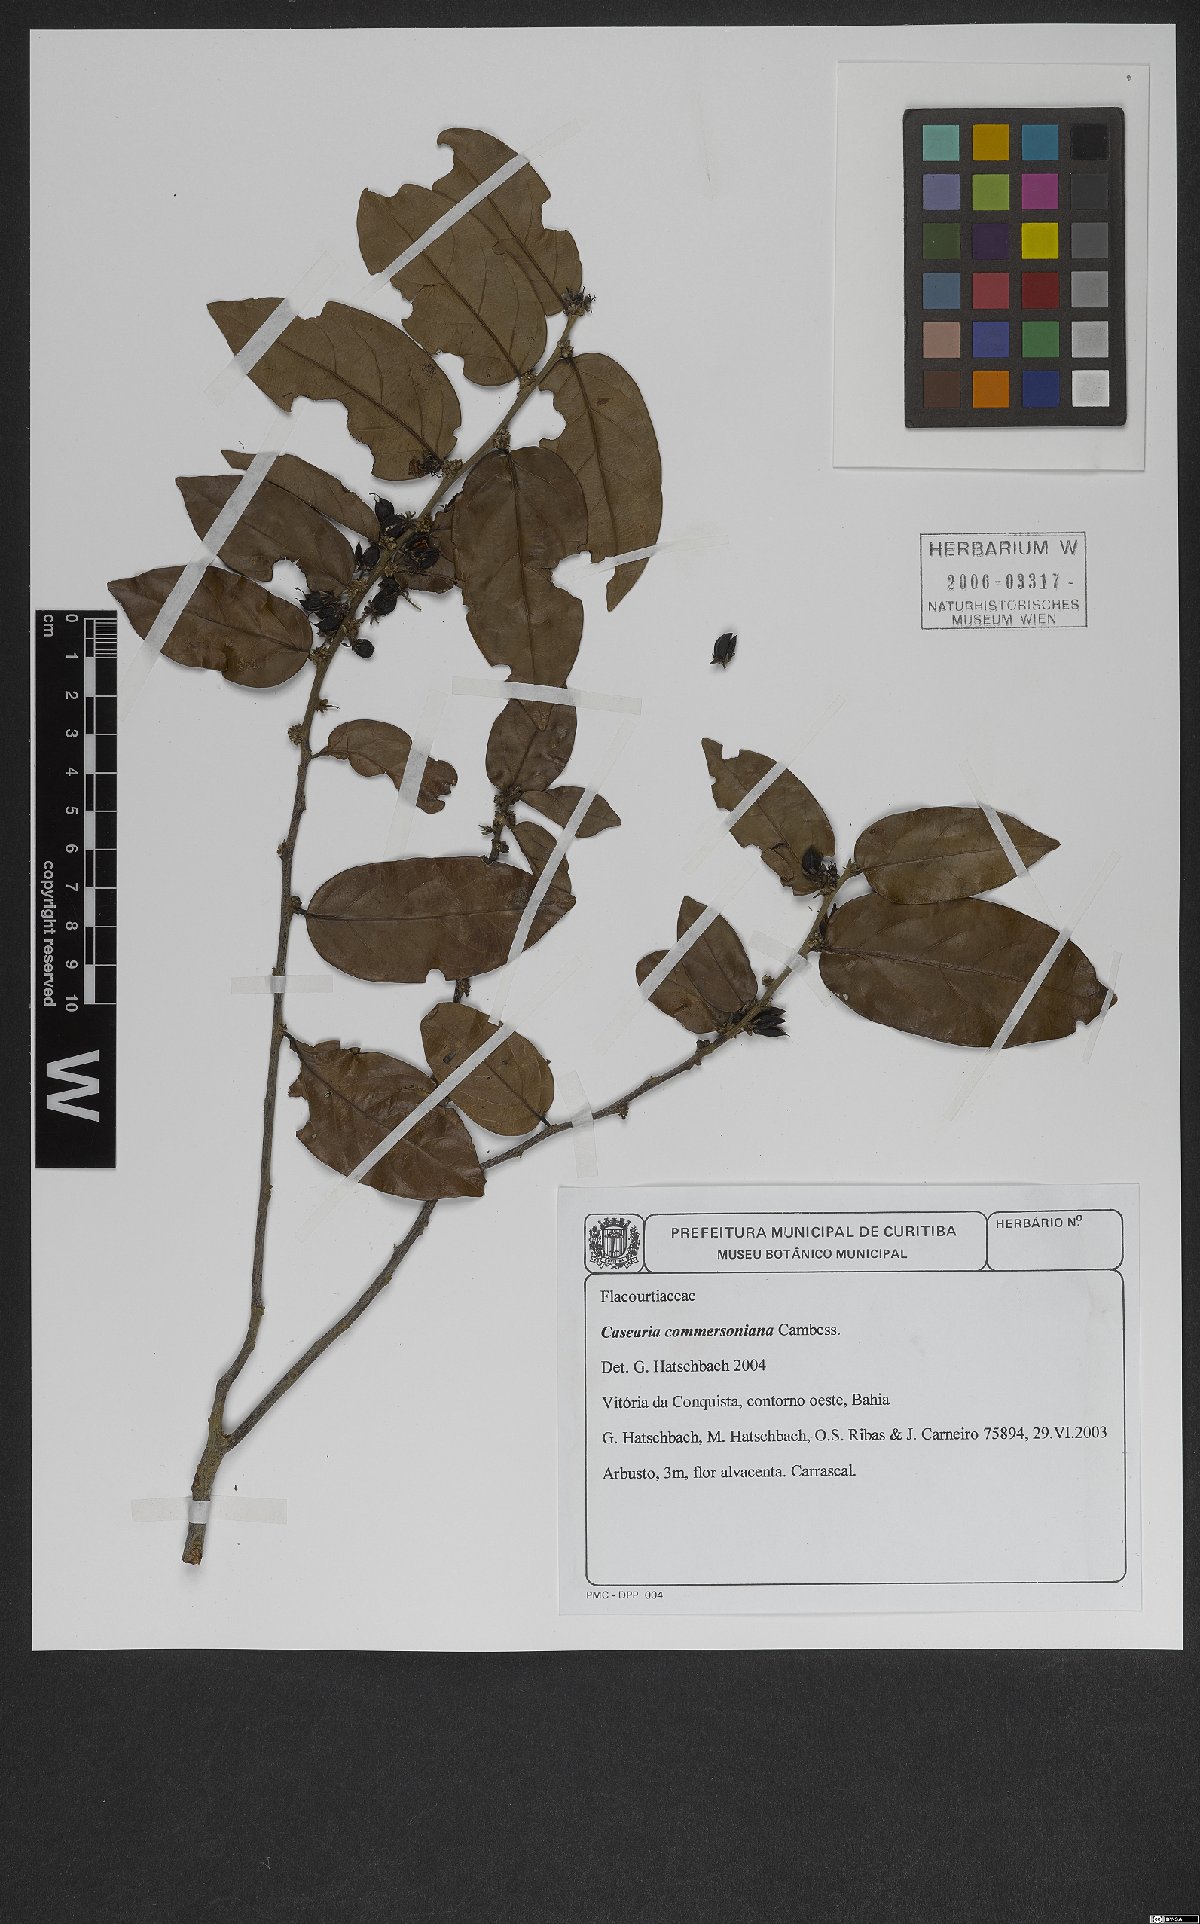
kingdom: Plantae
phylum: Tracheophyta
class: Magnoliopsida
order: Malpighiales
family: Salicaceae
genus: Piparea
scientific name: Piparea dentata
